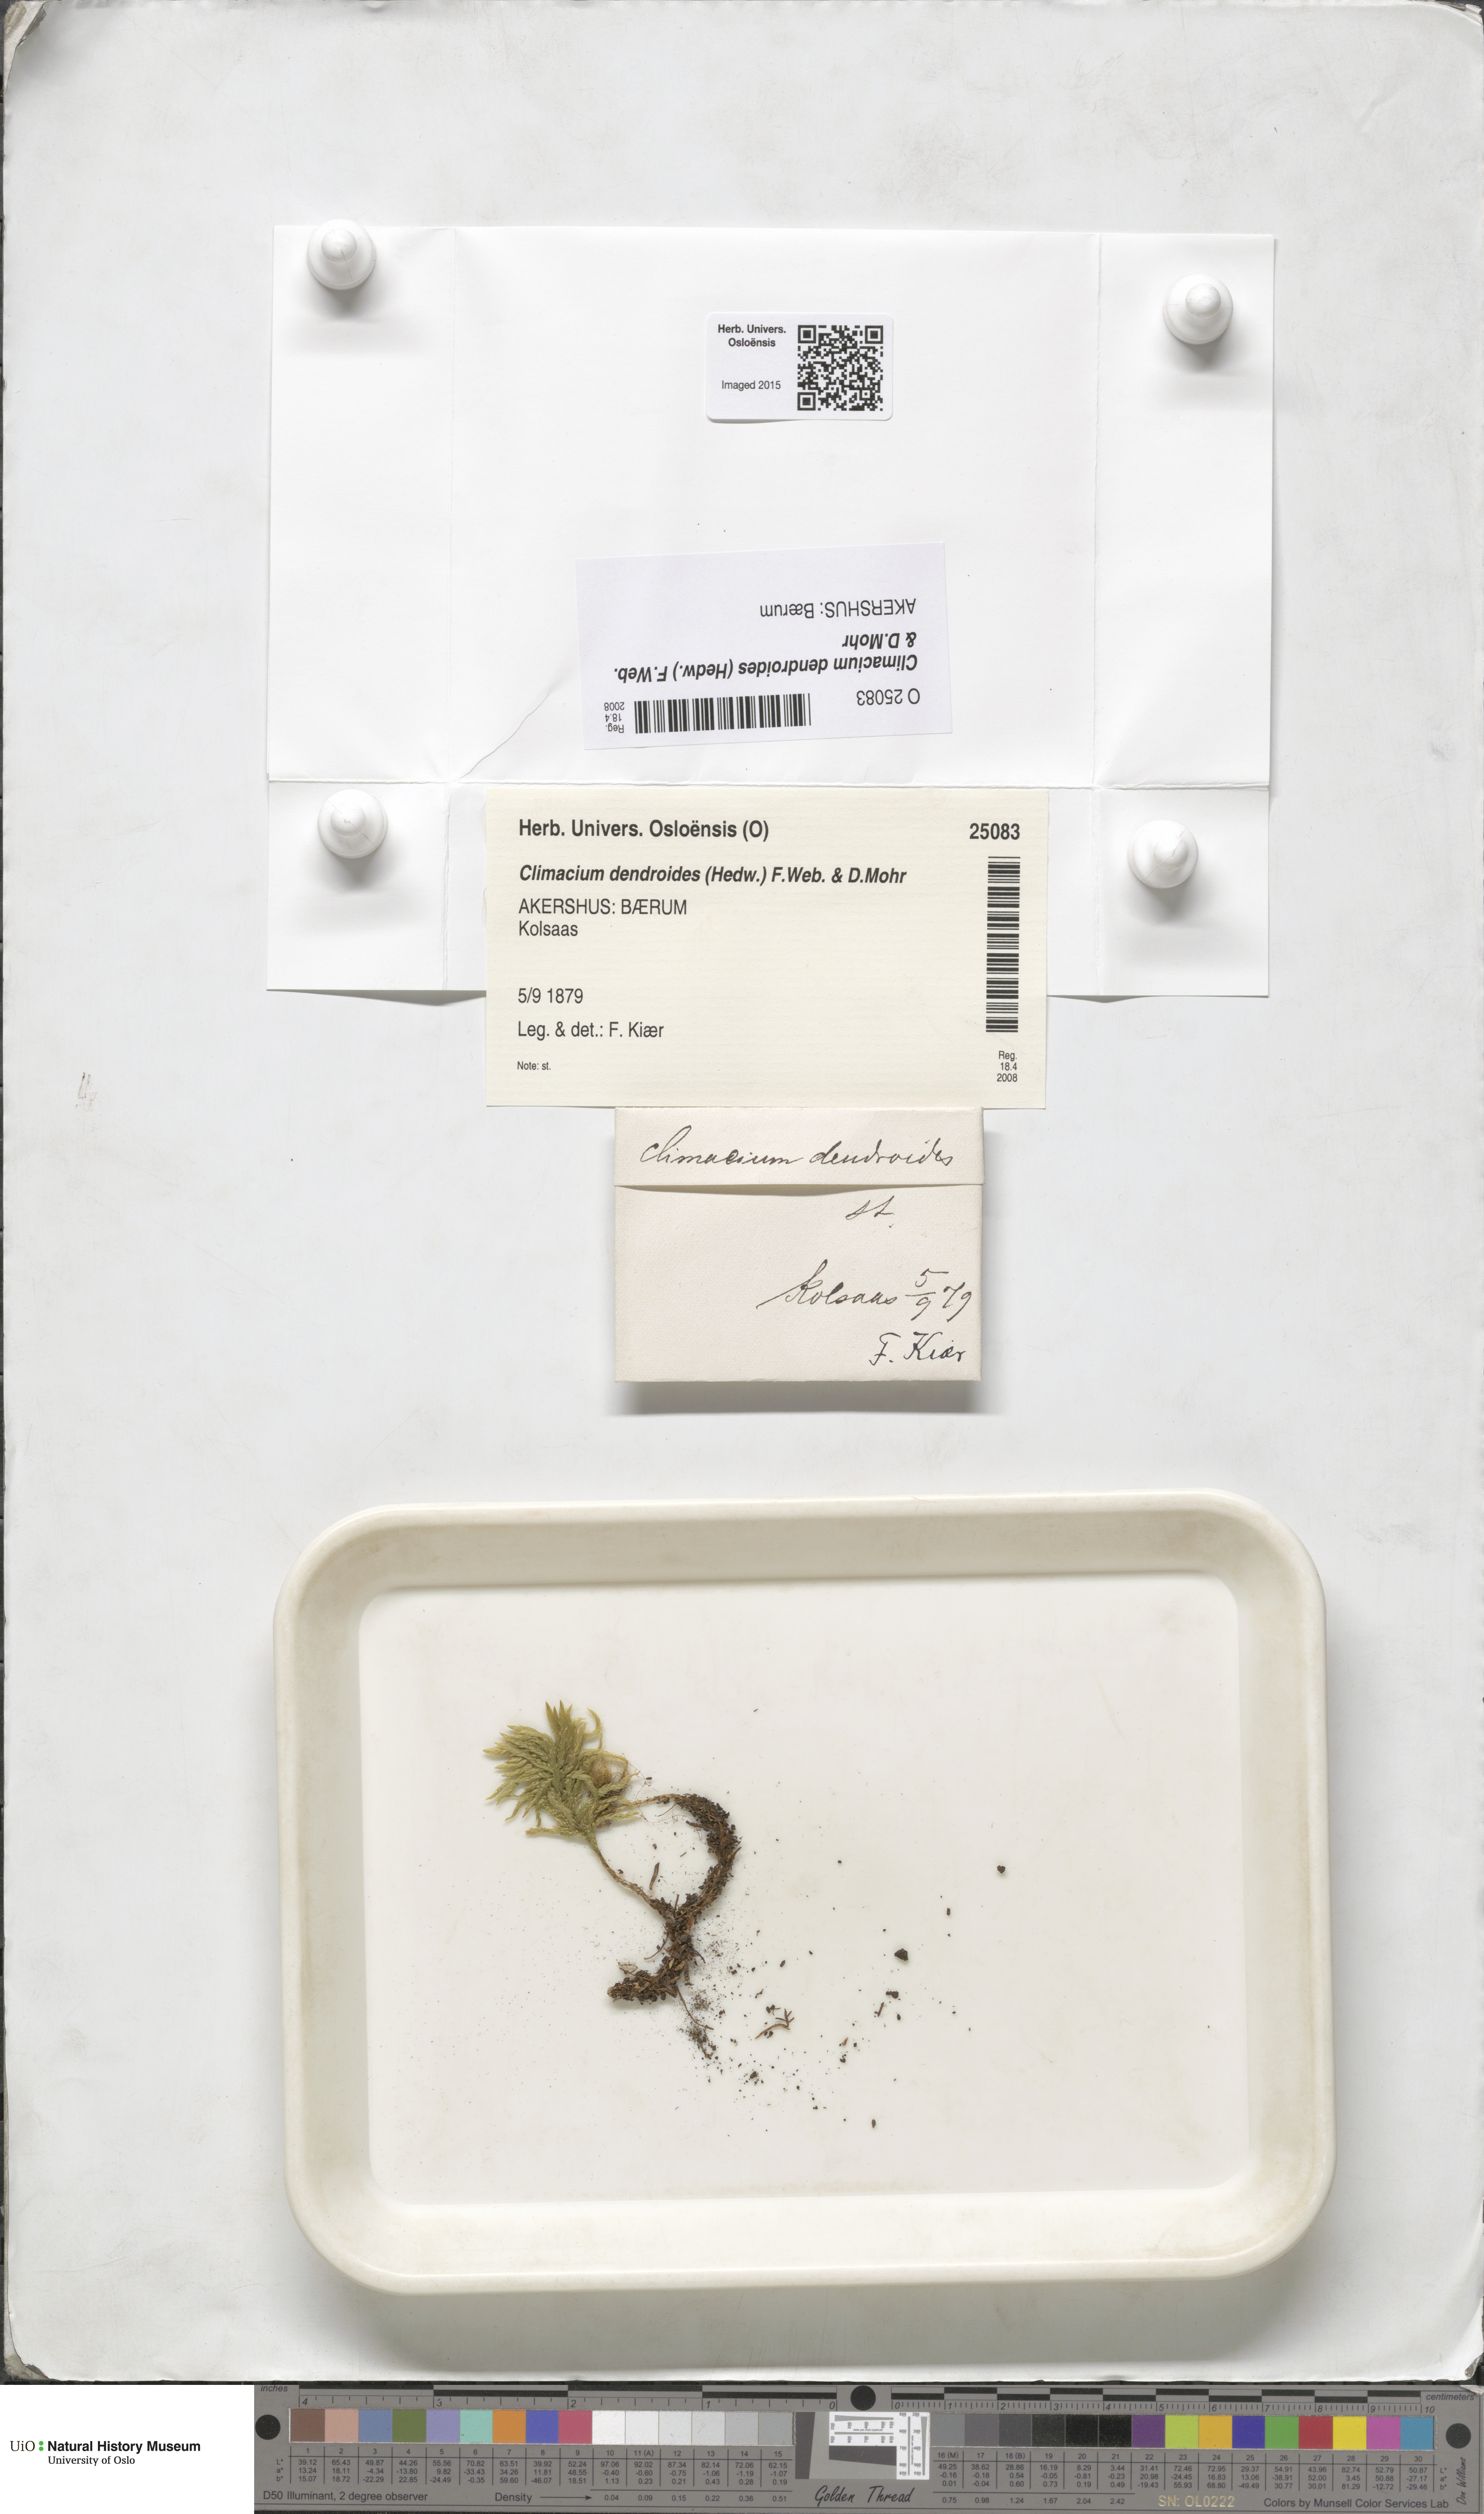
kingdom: Plantae
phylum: Bryophyta
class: Bryopsida
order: Hypnales
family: Climaciaceae
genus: Climacium
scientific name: Climacium dendroides
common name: Northern tree moss
